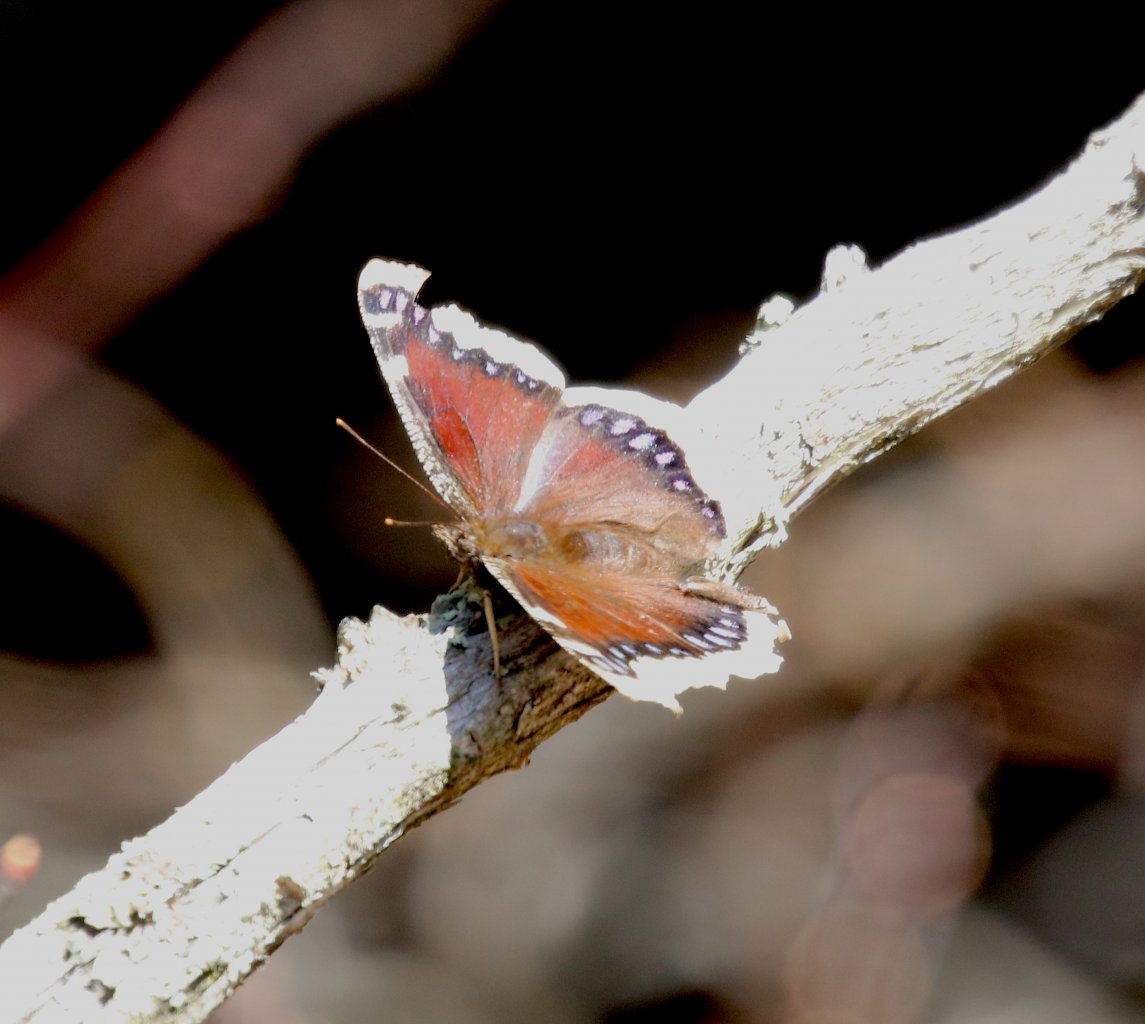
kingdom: Animalia
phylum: Arthropoda
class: Insecta
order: Lepidoptera
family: Nymphalidae
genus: Nymphalis
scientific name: Nymphalis antiopa
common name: Mourning Cloak
